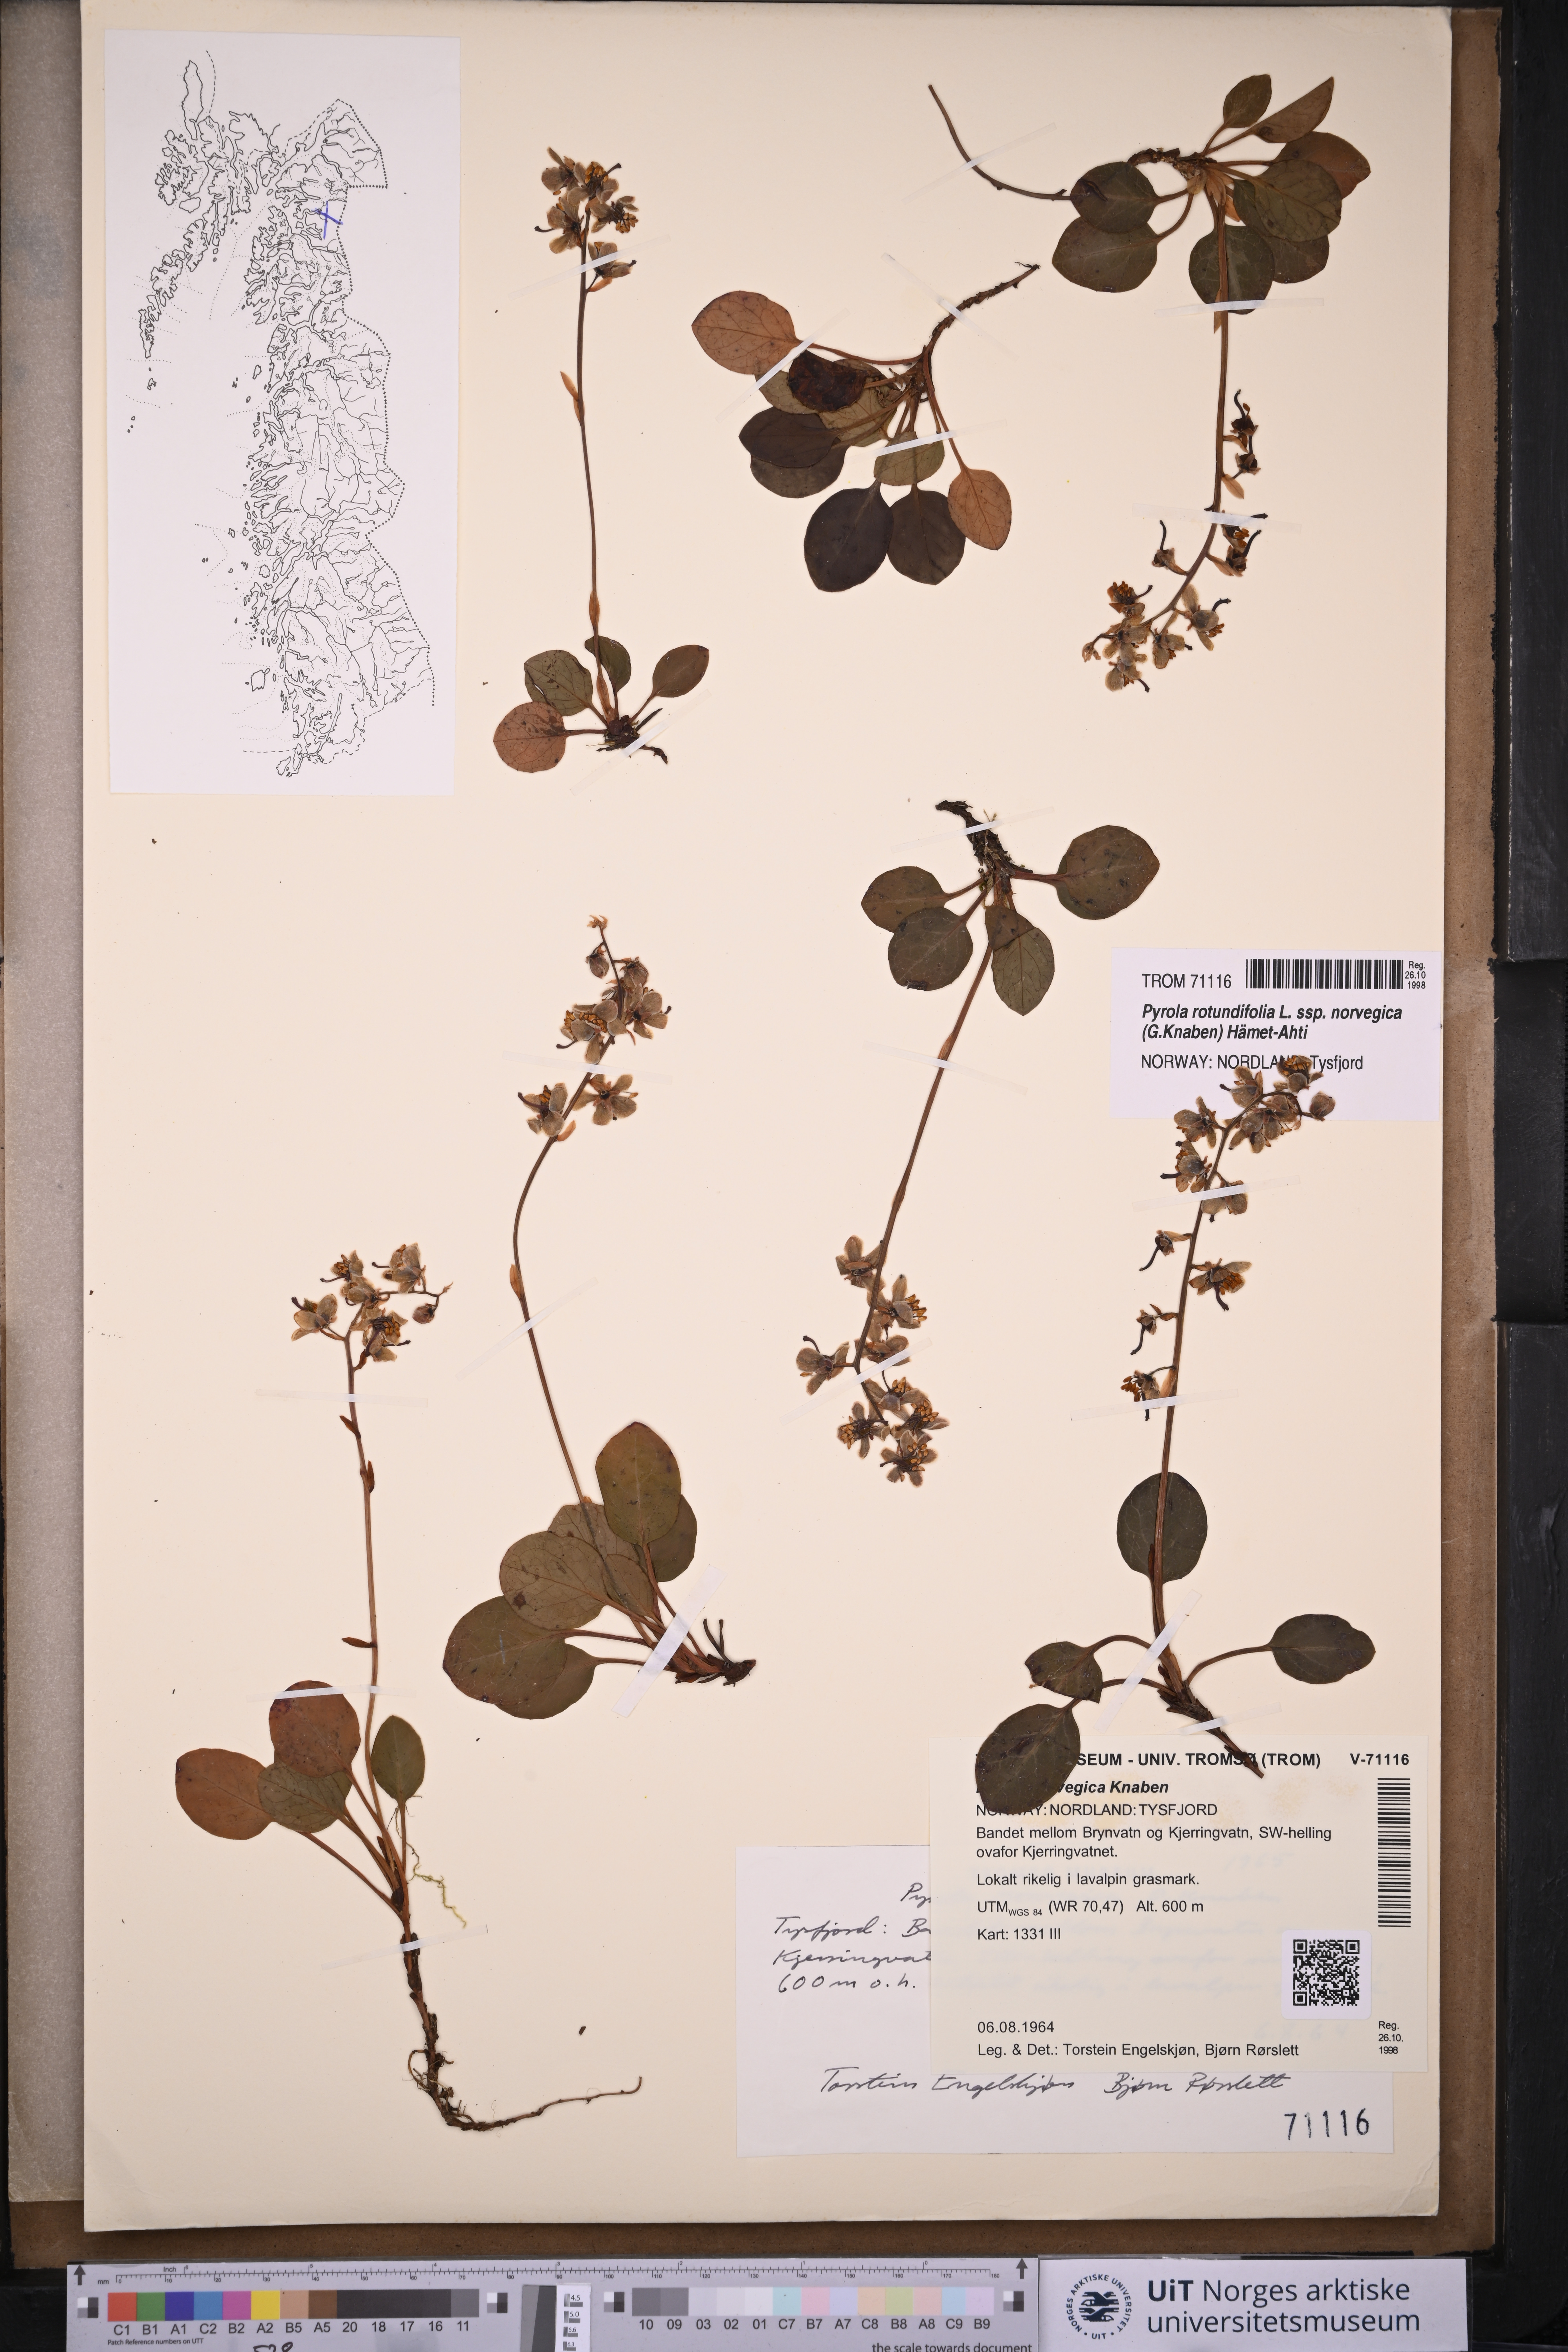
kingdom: Plantae
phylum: Tracheophyta
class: Magnoliopsida
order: Ericales
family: Ericaceae
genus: Pyrola
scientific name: Pyrola rotundifolia
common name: Round-leaved wintergreen
